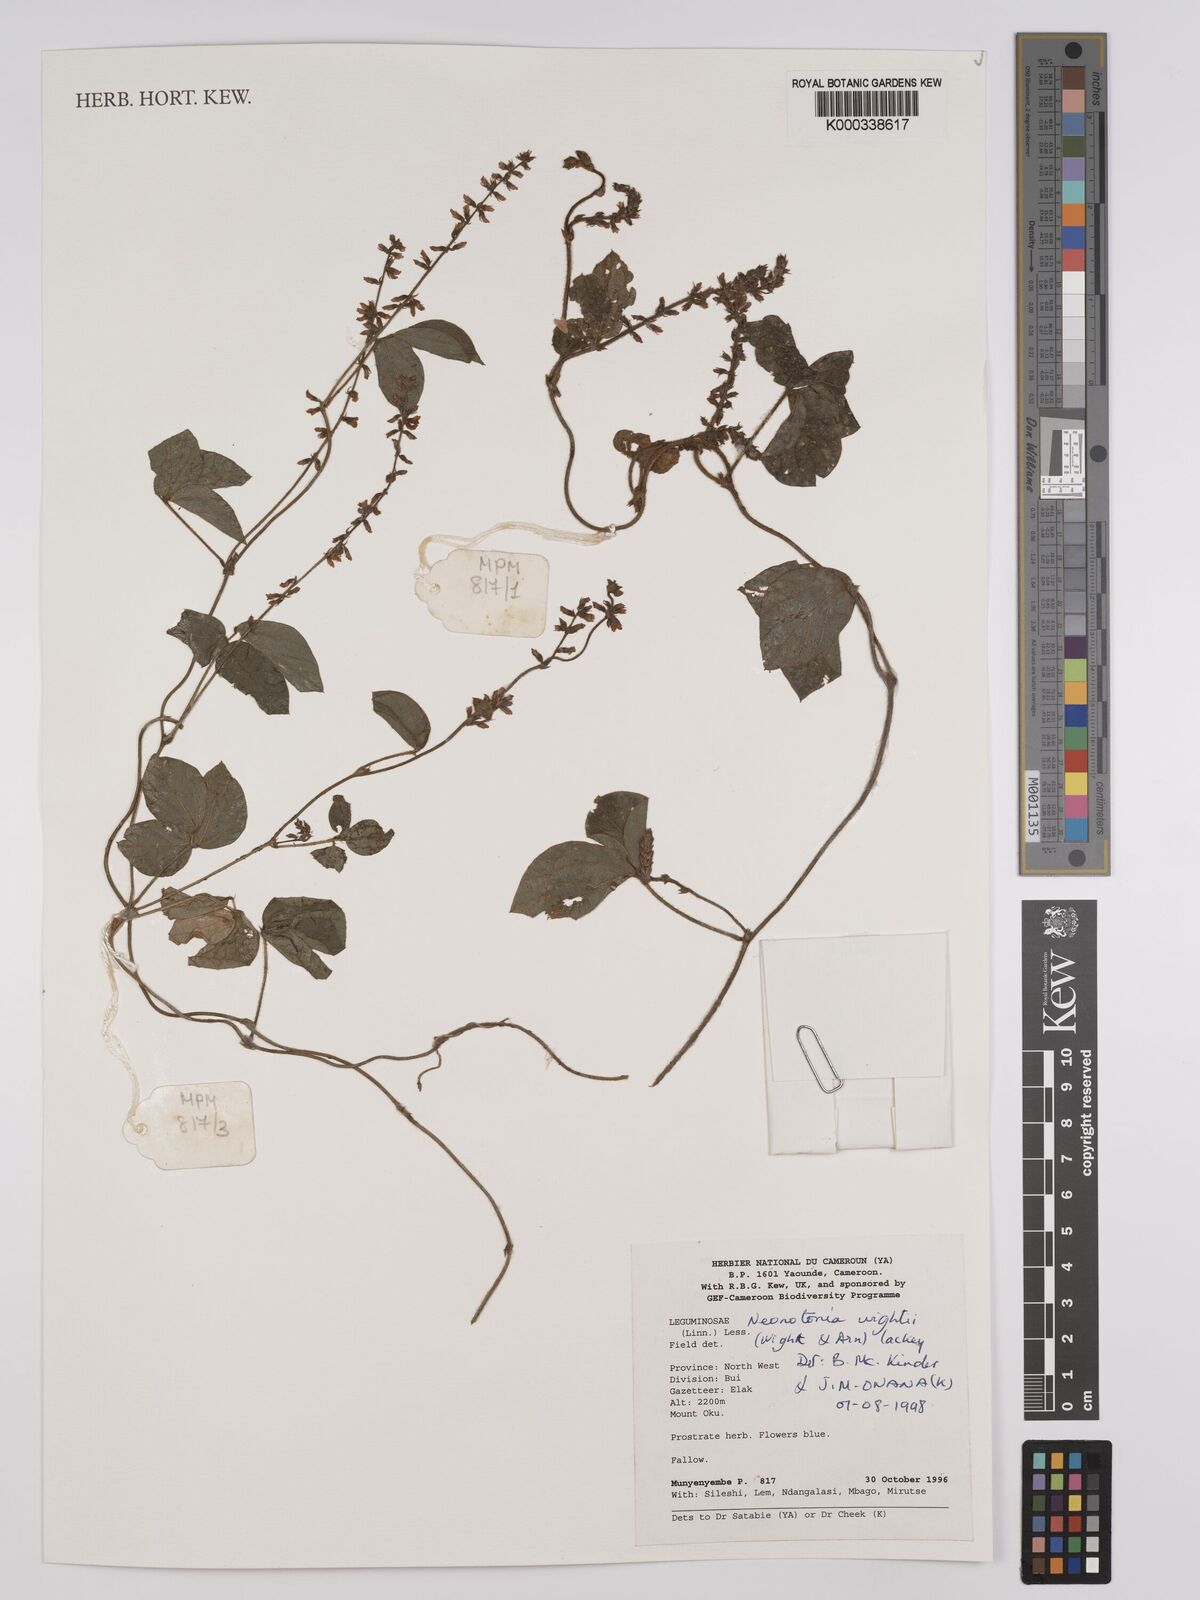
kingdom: Plantae
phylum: Tracheophyta
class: Magnoliopsida
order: Fabales
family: Fabaceae
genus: Neonotonia
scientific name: Neonotonia wightii
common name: Perennial soybean
